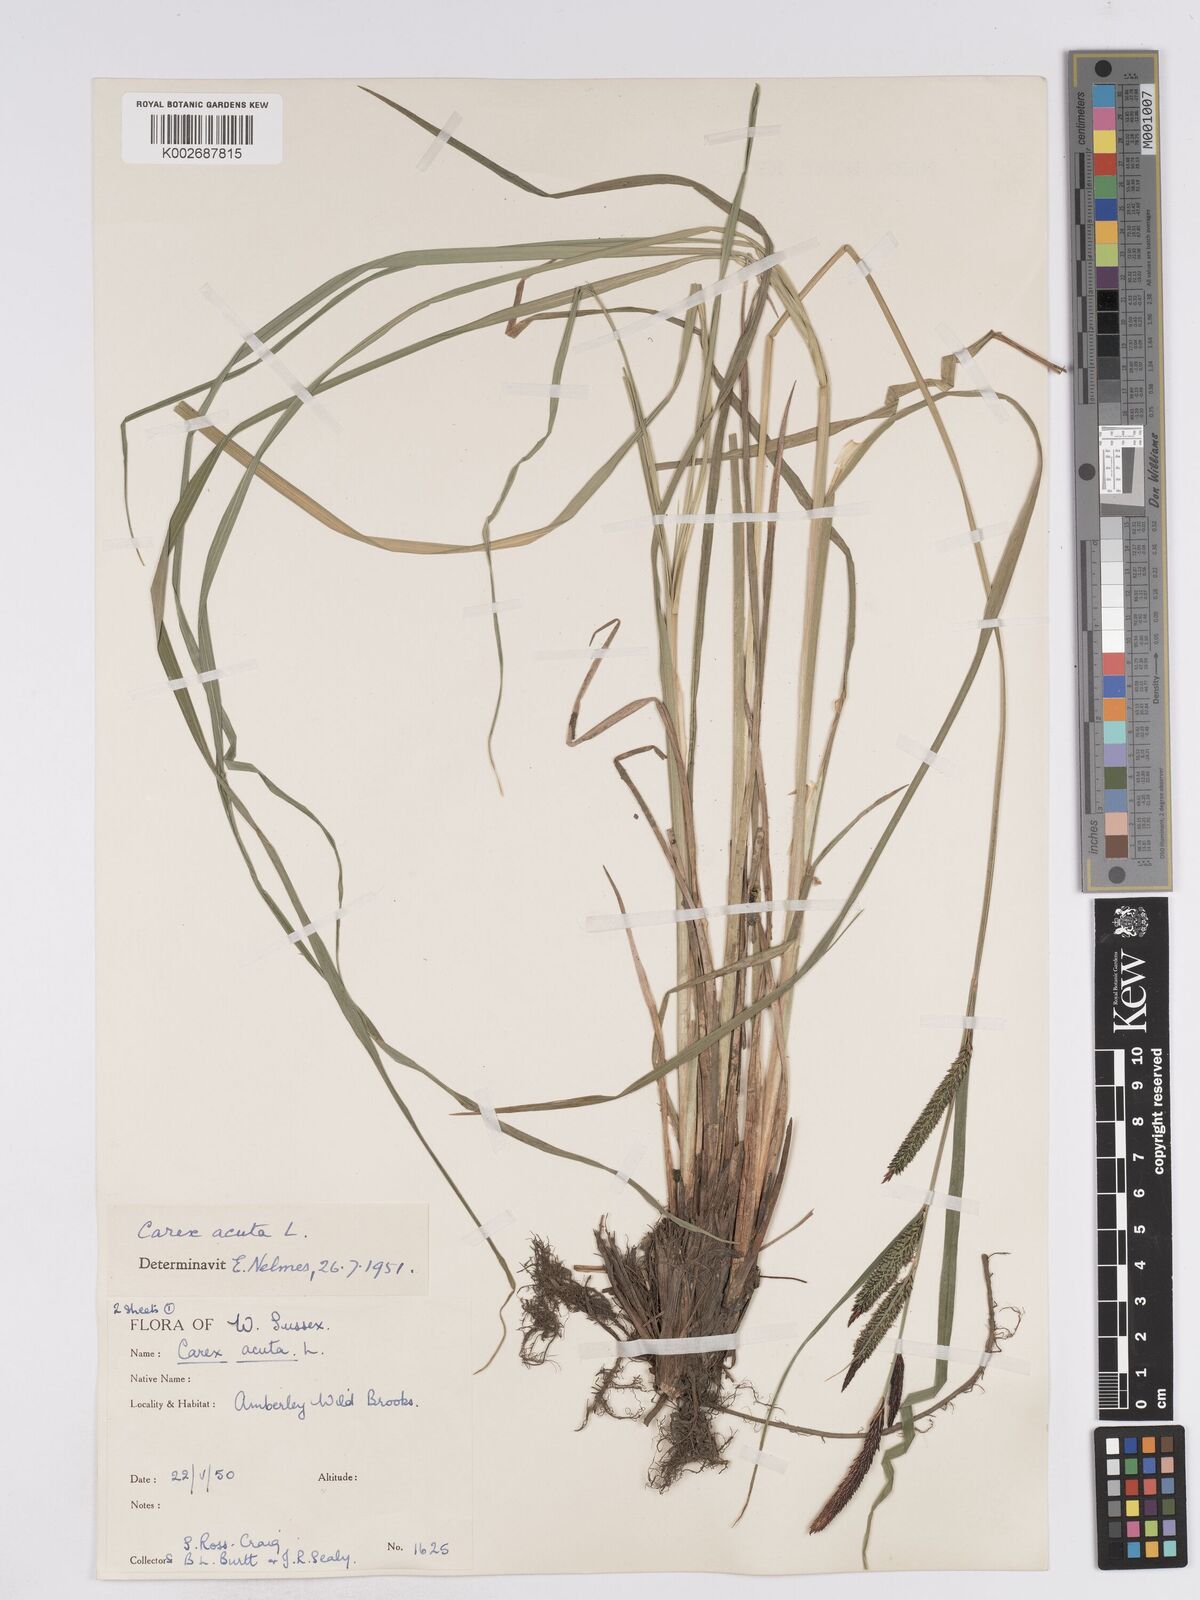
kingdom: Plantae
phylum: Tracheophyta
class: Liliopsida
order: Poales
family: Cyperaceae
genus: Carex
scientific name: Carex acuta
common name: Slender tufted-sedge
